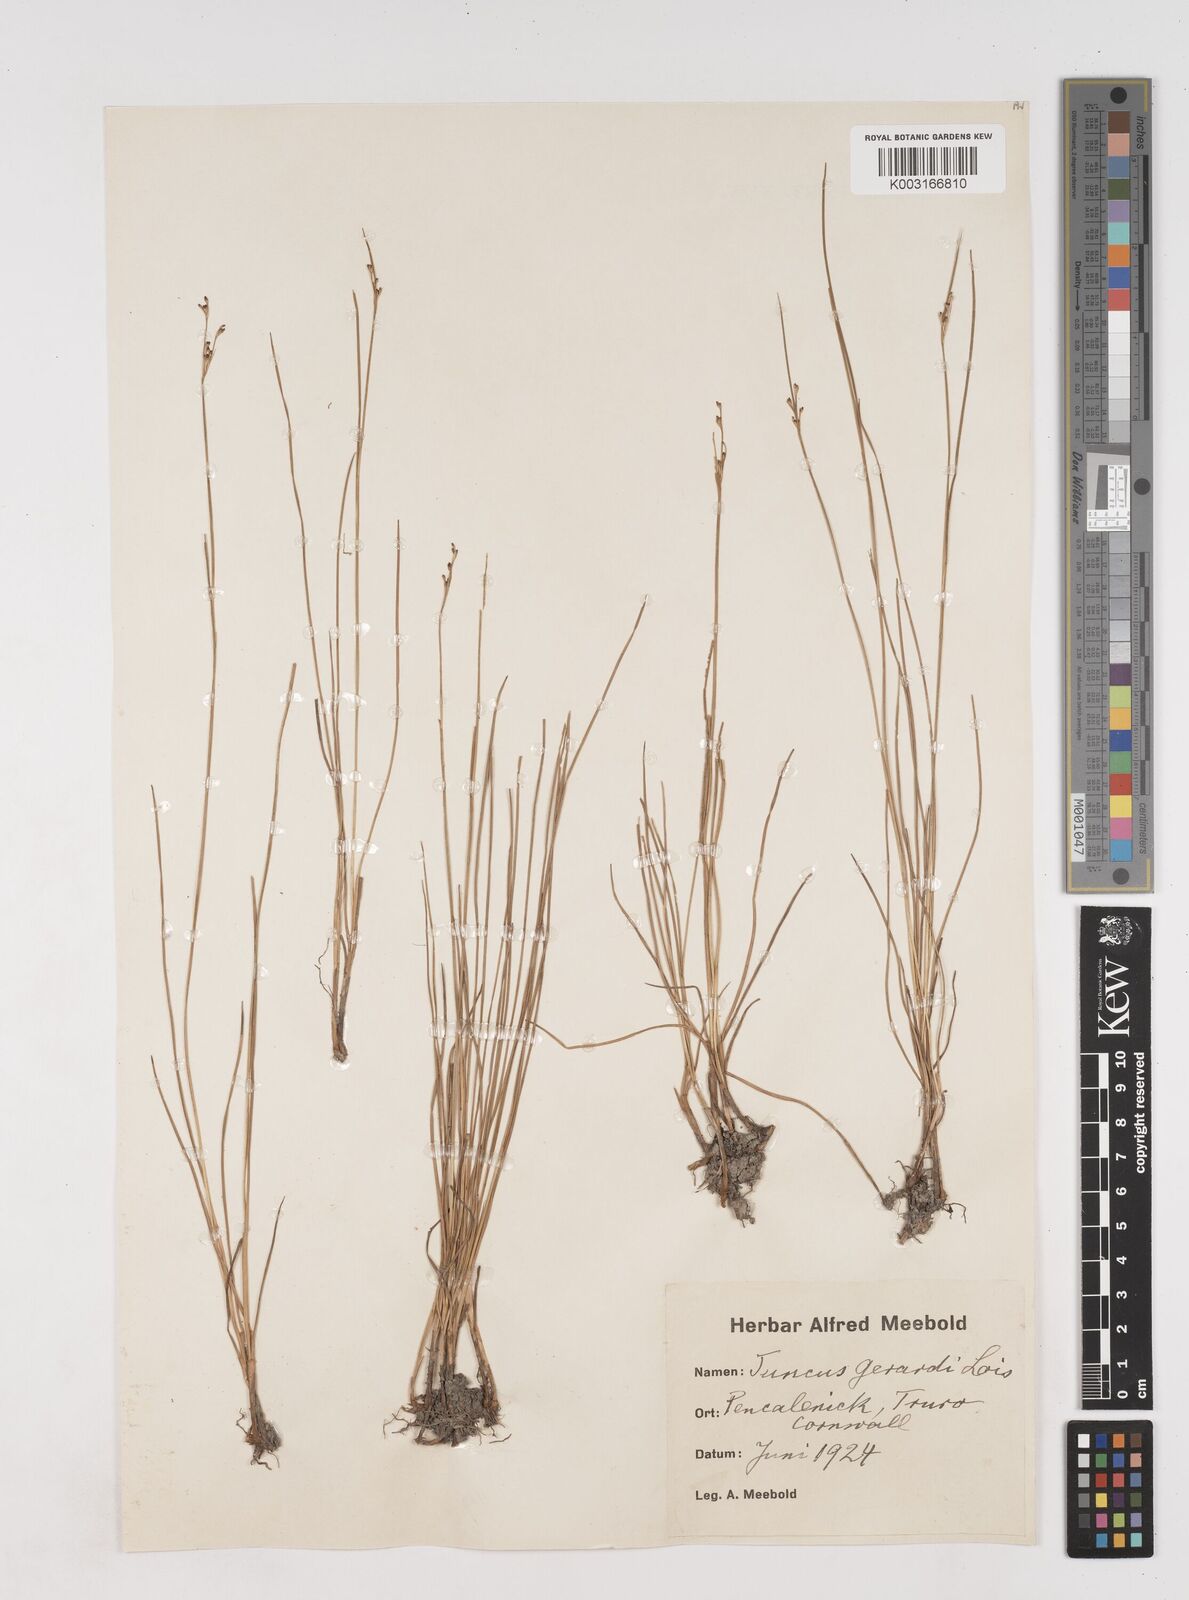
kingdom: Plantae
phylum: Tracheophyta
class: Liliopsida
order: Poales
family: Juncaceae
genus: Juncus
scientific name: Juncus gerardi
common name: Saltmarsh rush
